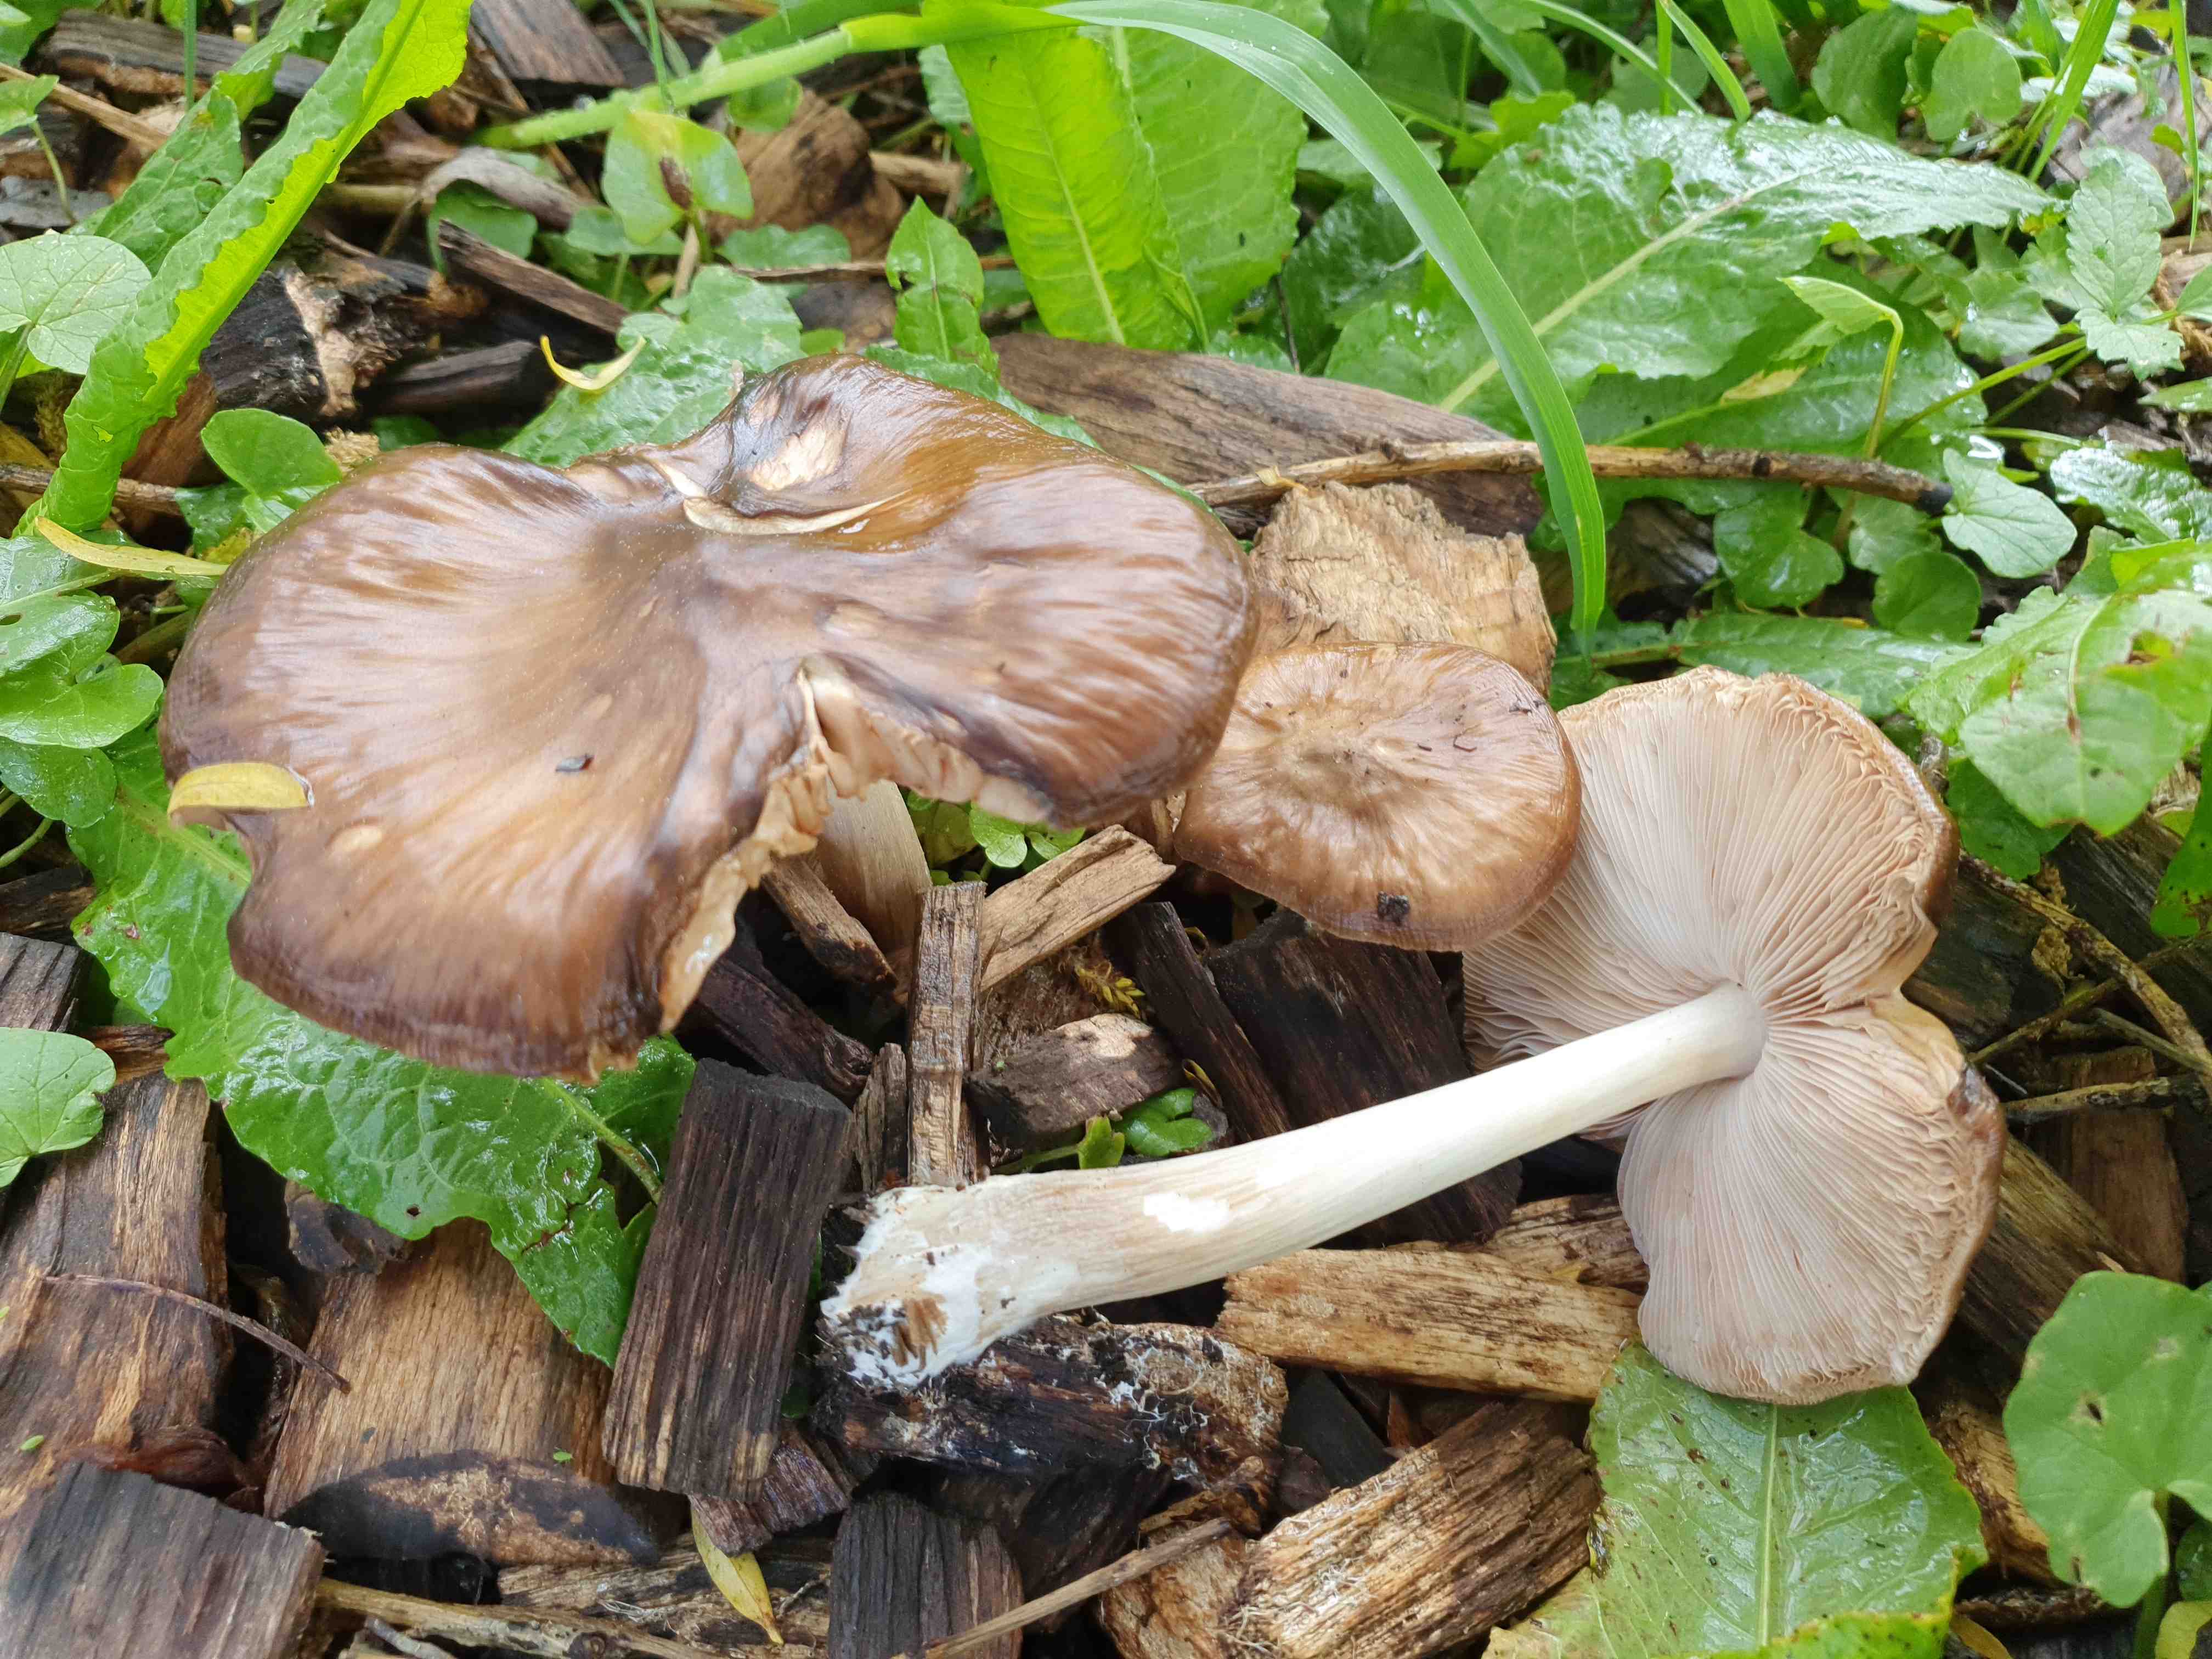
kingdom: Fungi
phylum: Basidiomycota
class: Agaricomycetes
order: Agaricales
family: Pluteaceae
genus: Pluteus
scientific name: Pluteus cervinus
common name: sodfarvet skærmhat
